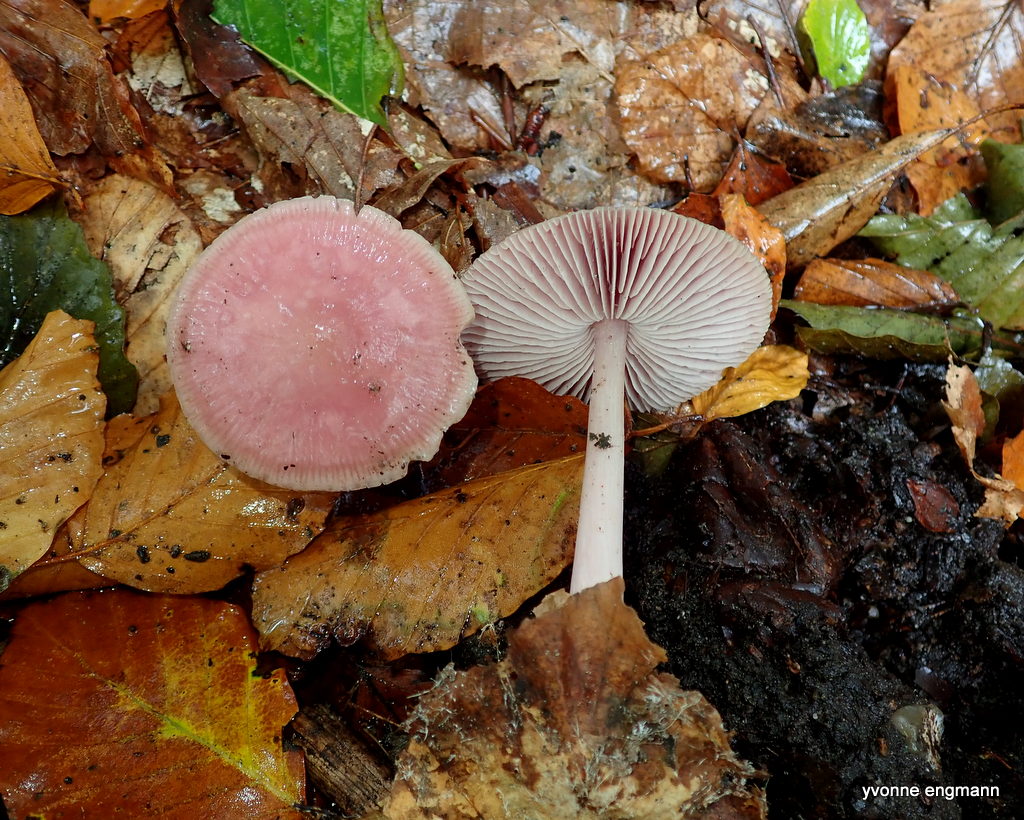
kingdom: Fungi
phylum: Basidiomycota
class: Agaricomycetes
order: Agaricales
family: Mycenaceae
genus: Mycena
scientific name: Mycena rosea
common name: rosa huesvamp
